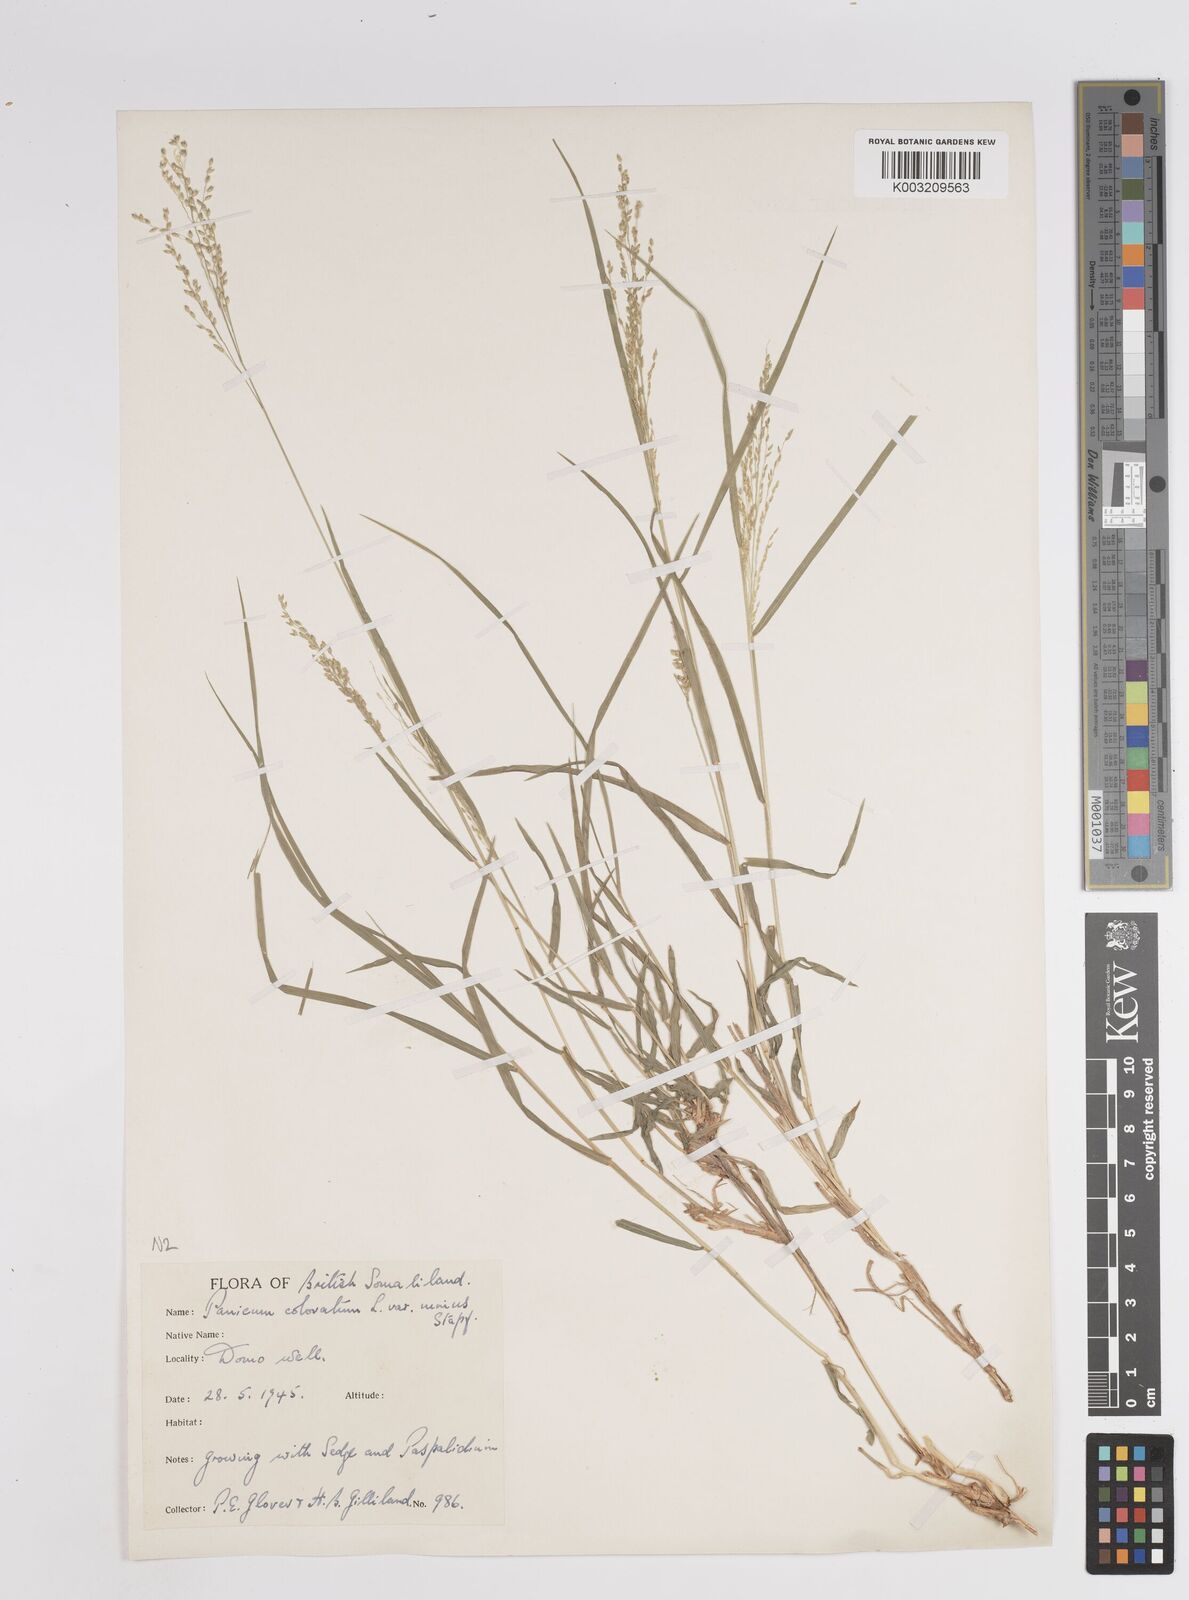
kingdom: Plantae
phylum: Tracheophyta
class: Liliopsida
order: Poales
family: Poaceae
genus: Panicum
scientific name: Panicum coloratum
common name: Kleingrass
